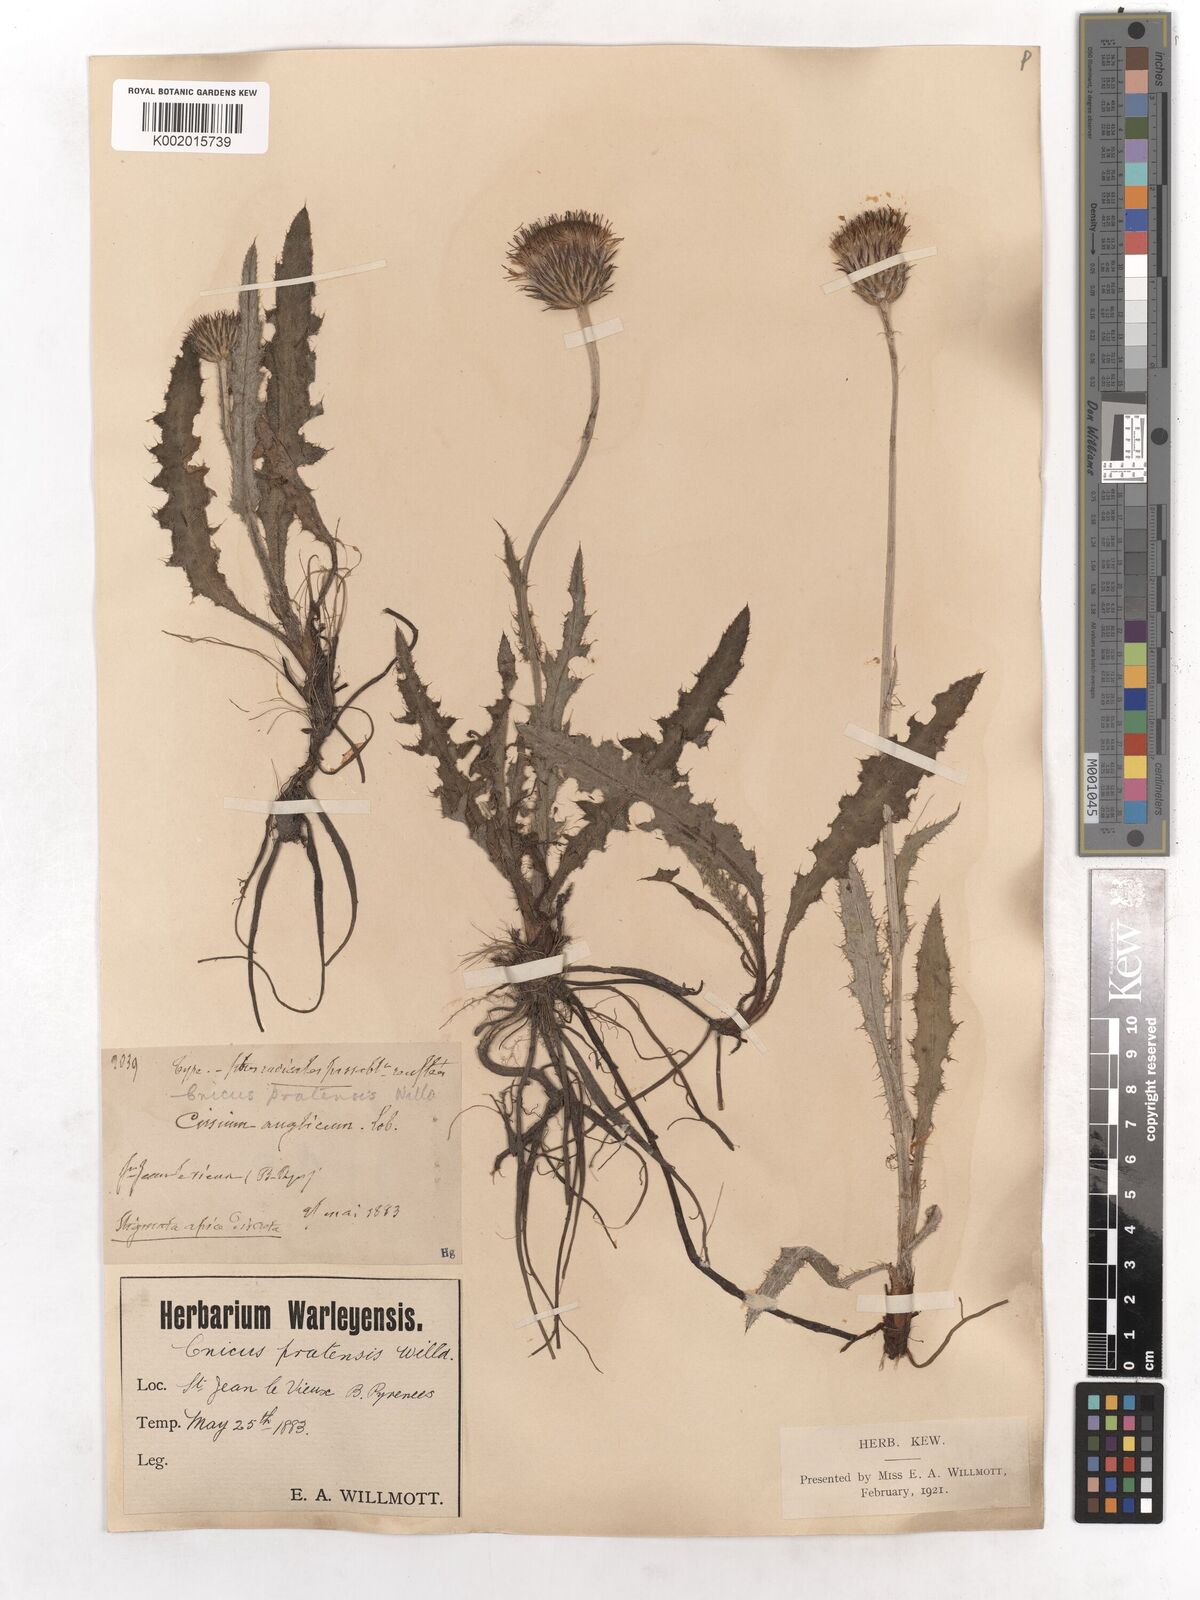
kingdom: Plantae
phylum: Tracheophyta
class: Magnoliopsida
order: Asterales
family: Asteraceae
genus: Cirsium
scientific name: Cirsium dissectum
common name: Meadow thistle
